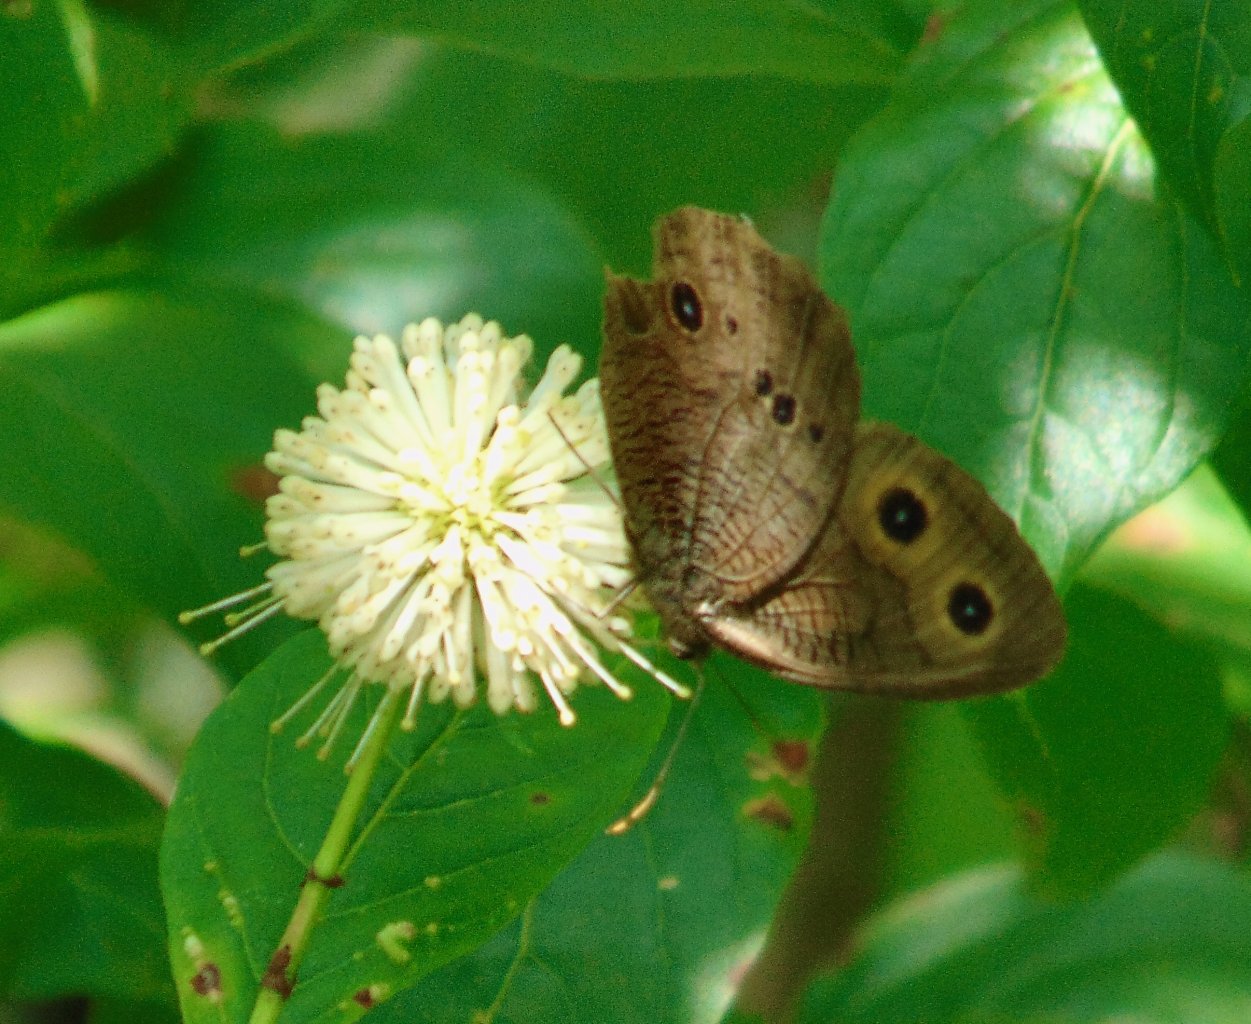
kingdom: Animalia
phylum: Arthropoda
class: Insecta
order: Lepidoptera
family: Nymphalidae
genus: Cercyonis
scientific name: Cercyonis pegala
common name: Common Wood-Nymph
